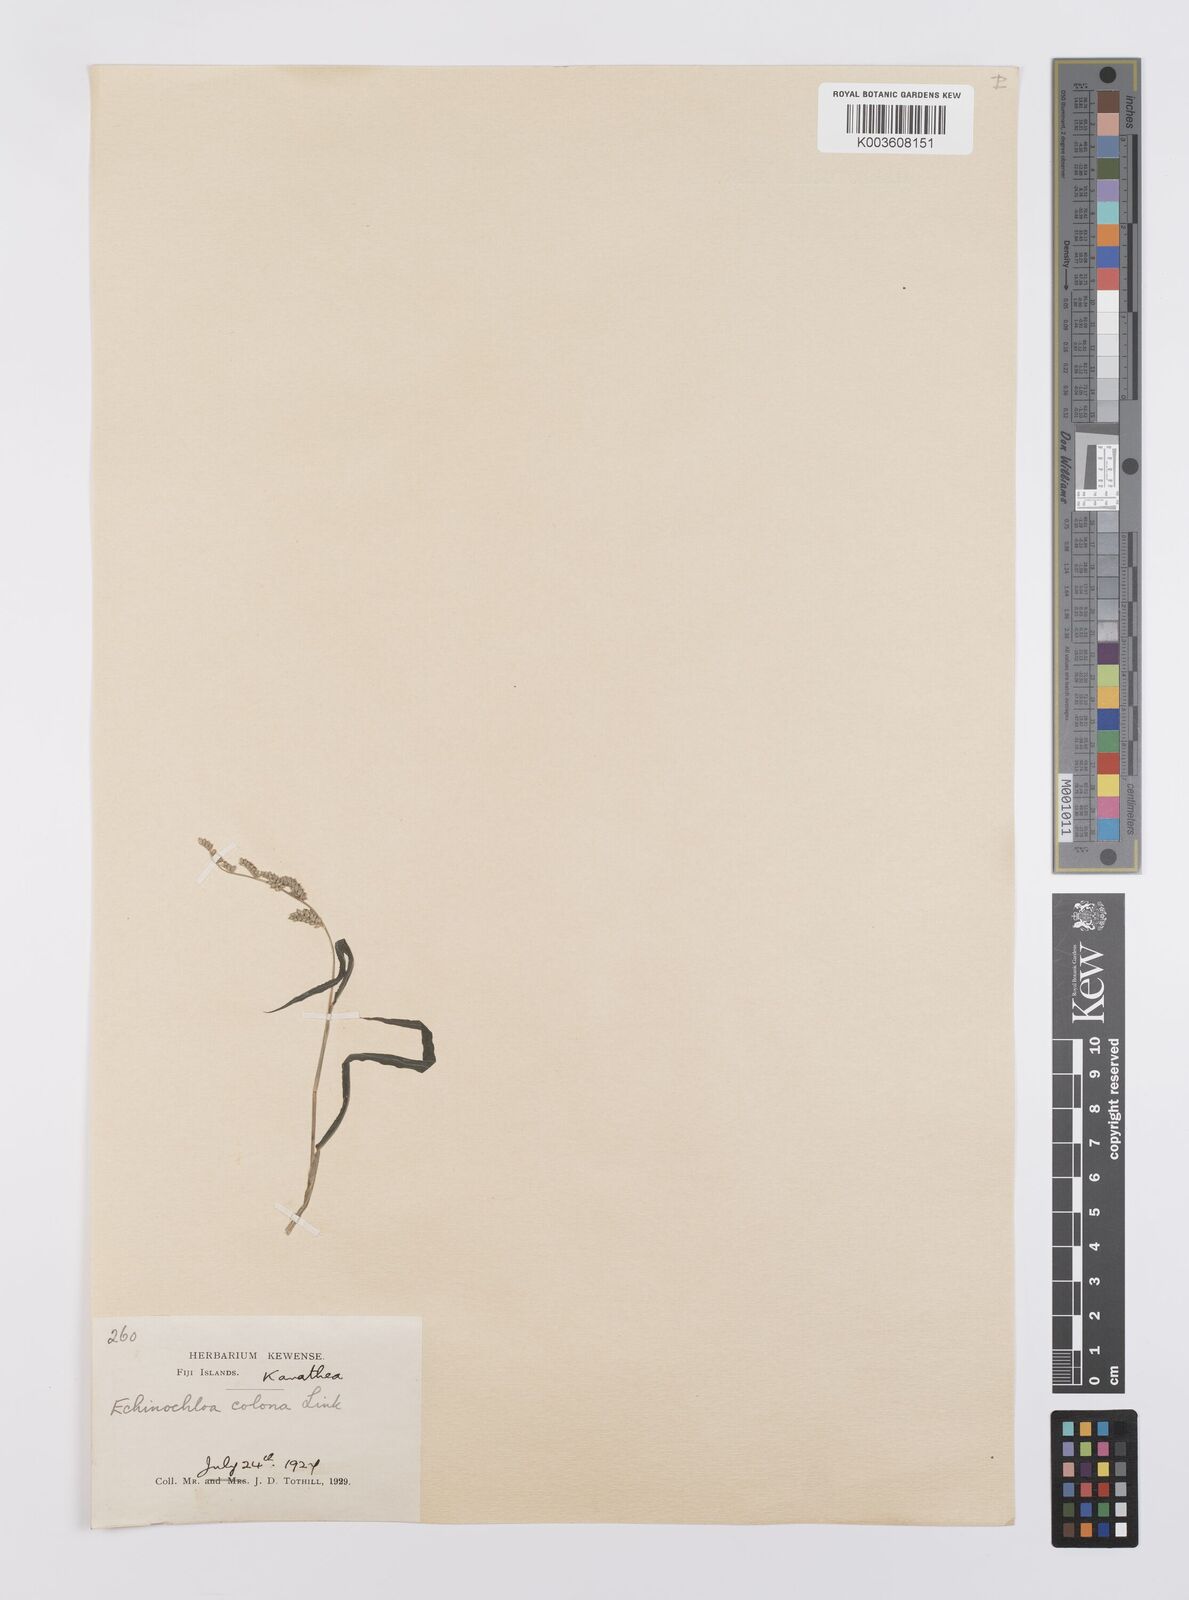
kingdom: Plantae
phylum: Tracheophyta
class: Liliopsida
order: Poales
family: Poaceae
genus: Echinochloa
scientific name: Echinochloa colonum
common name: Jungle rice
